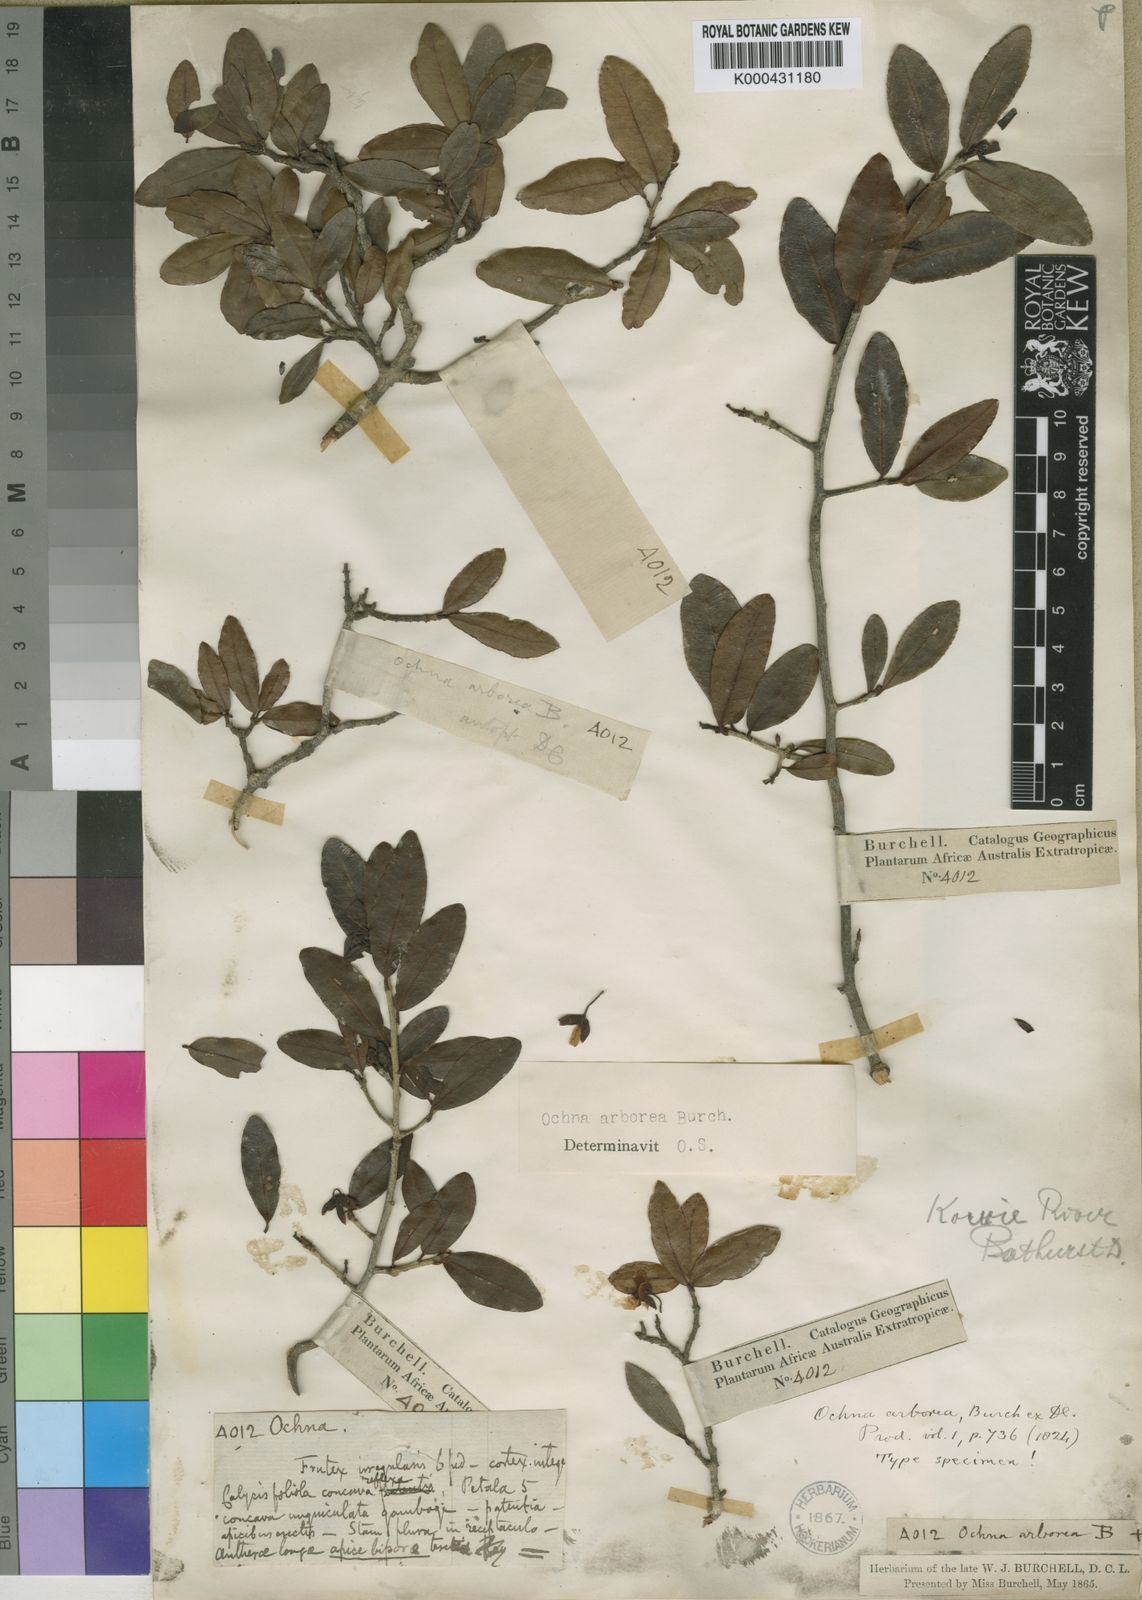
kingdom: Plantae
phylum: Tracheophyta
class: Magnoliopsida
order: Malpighiales
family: Ochnaceae
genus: Ochna
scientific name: Ochna arborea
